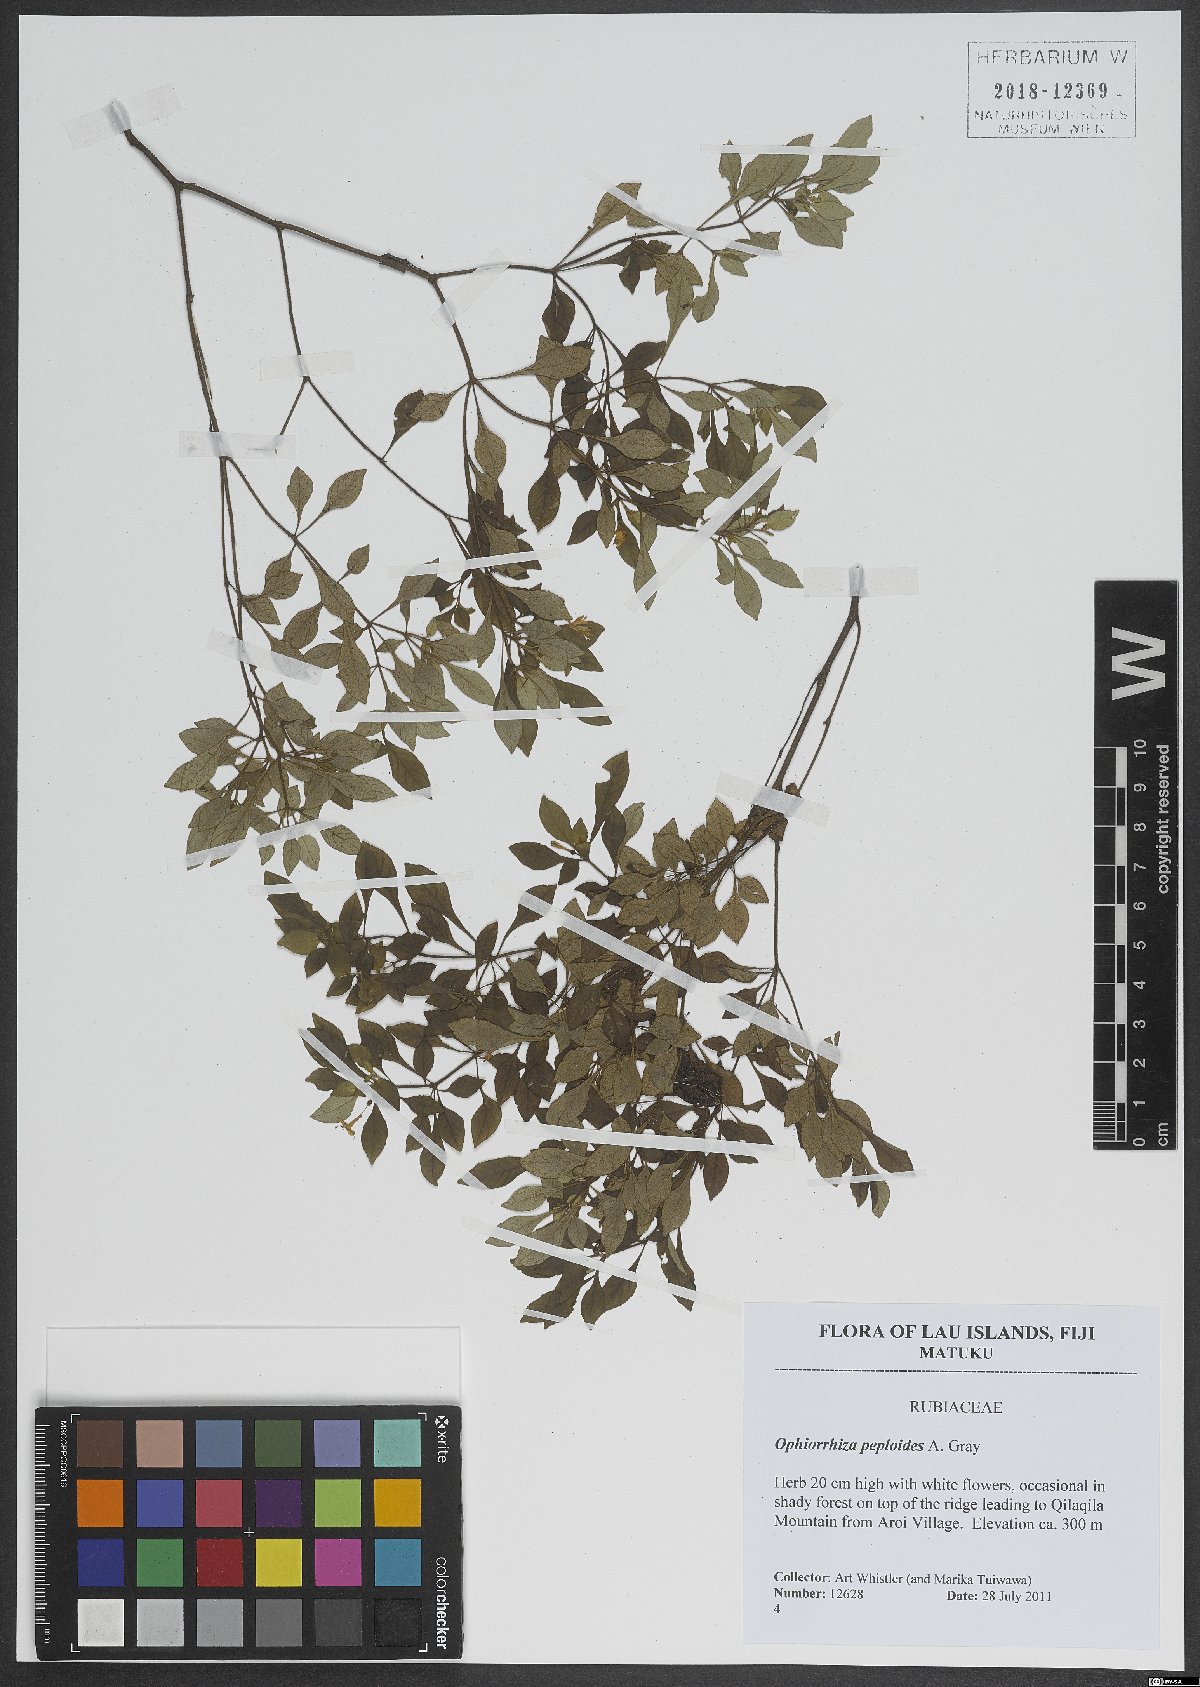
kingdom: Plantae
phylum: Tracheophyta
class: Magnoliopsida
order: Gentianales
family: Rubiaceae
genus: Ophiorrhiza
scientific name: Ophiorrhiza peploides
